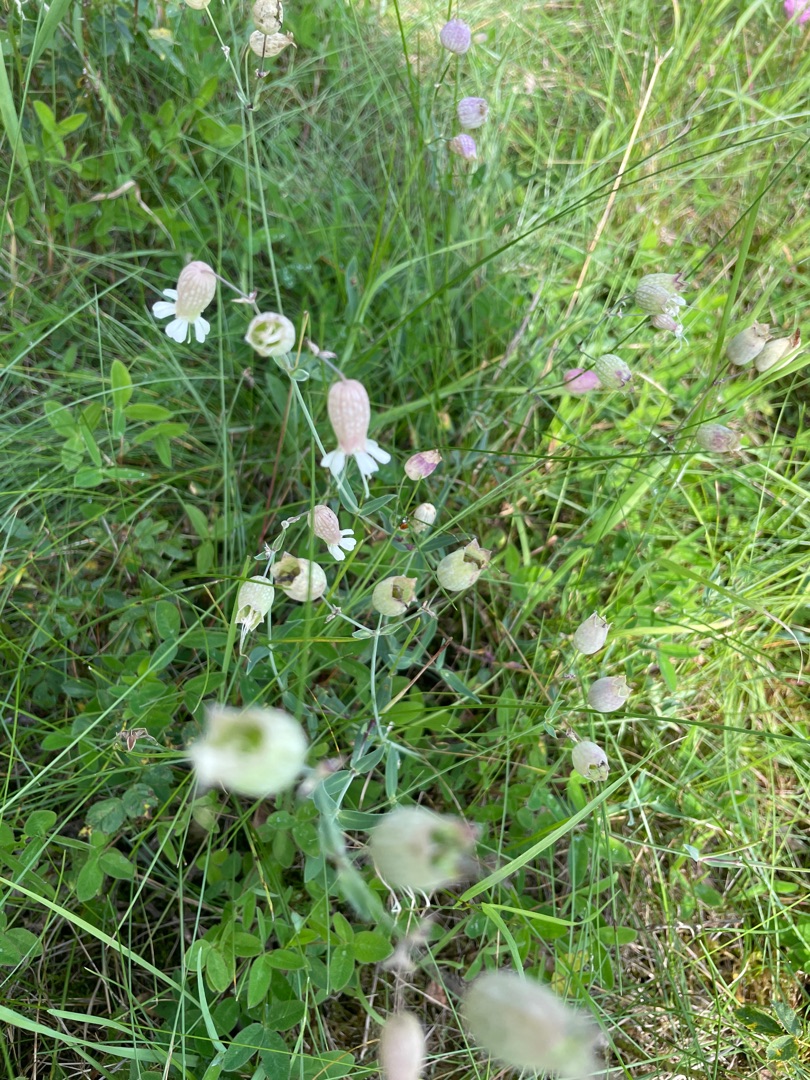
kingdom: Plantae
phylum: Tracheophyta
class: Magnoliopsida
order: Caryophyllales
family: Caryophyllaceae
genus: Silene
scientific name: Silene vulgaris
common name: Blæresmælde
